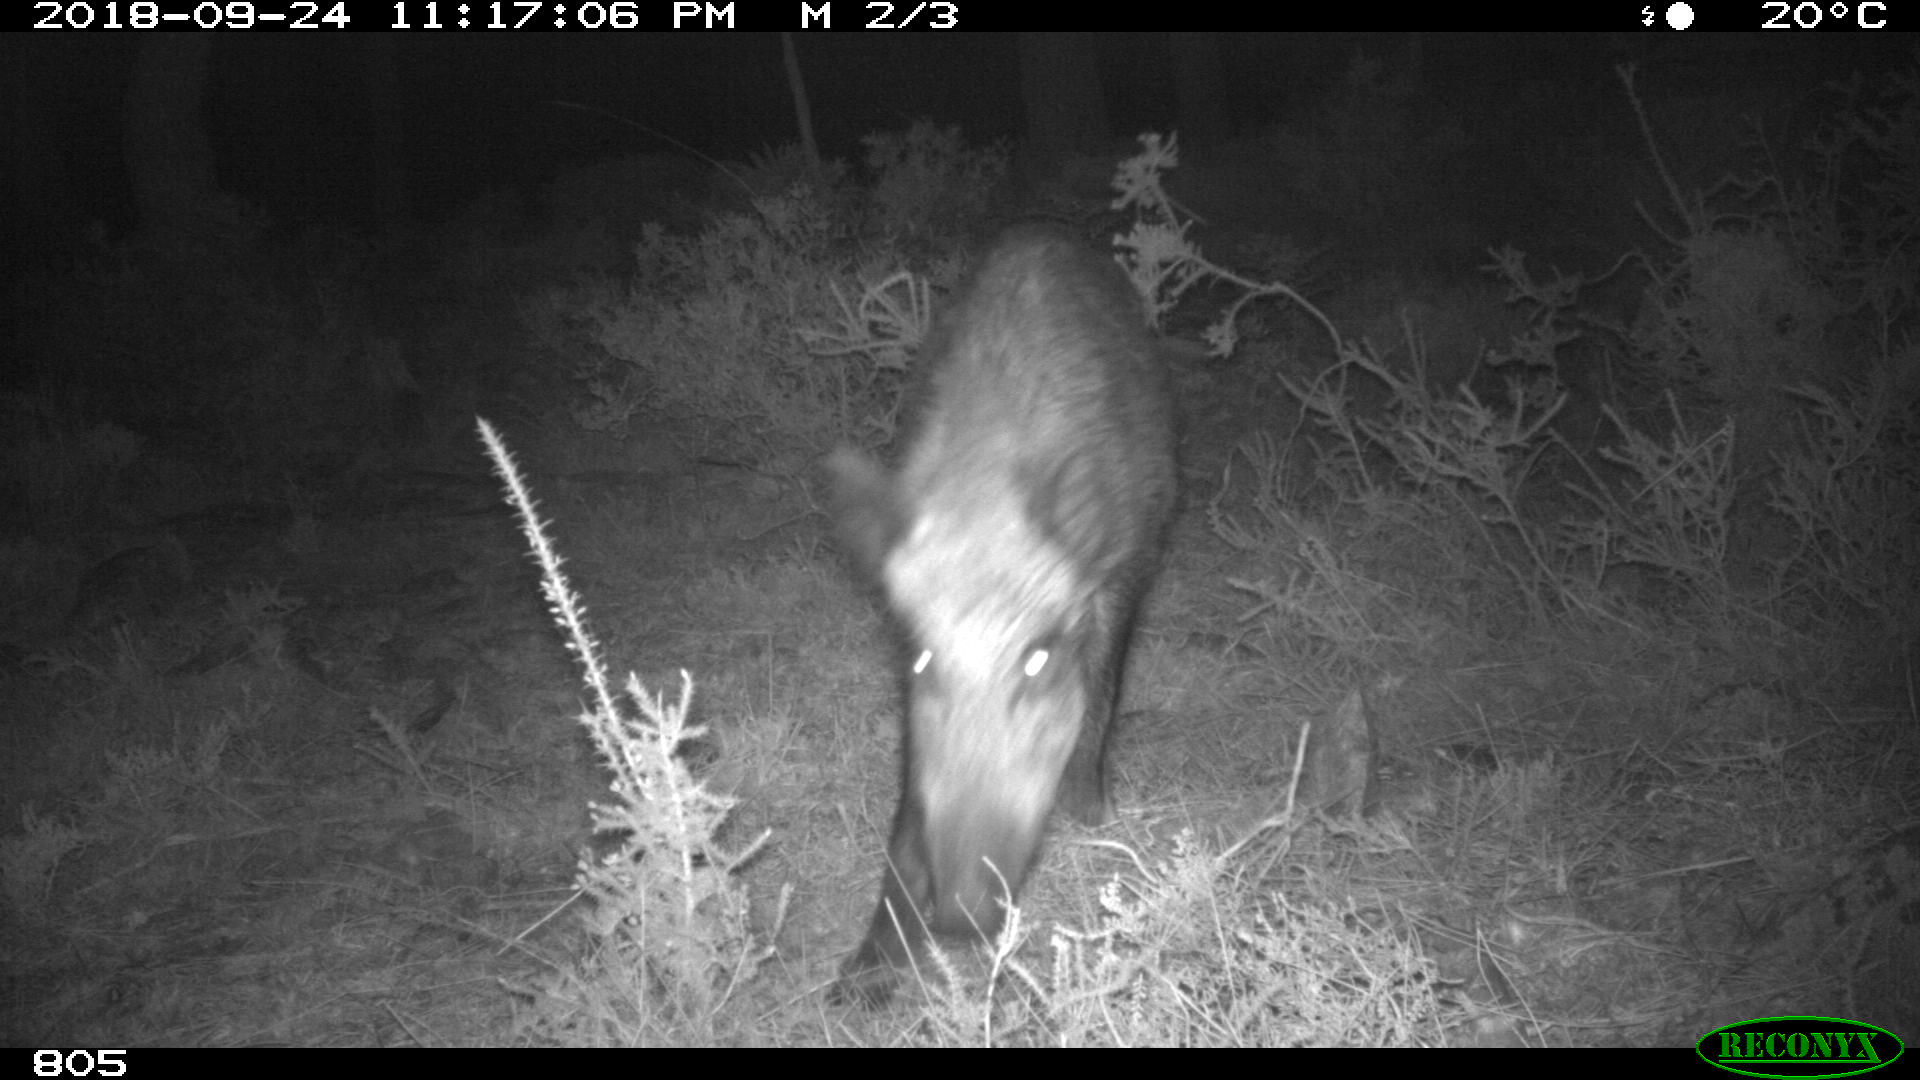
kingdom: Animalia
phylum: Chordata
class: Mammalia
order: Artiodactyla
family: Suidae
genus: Sus
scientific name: Sus scrofa
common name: Wild boar
